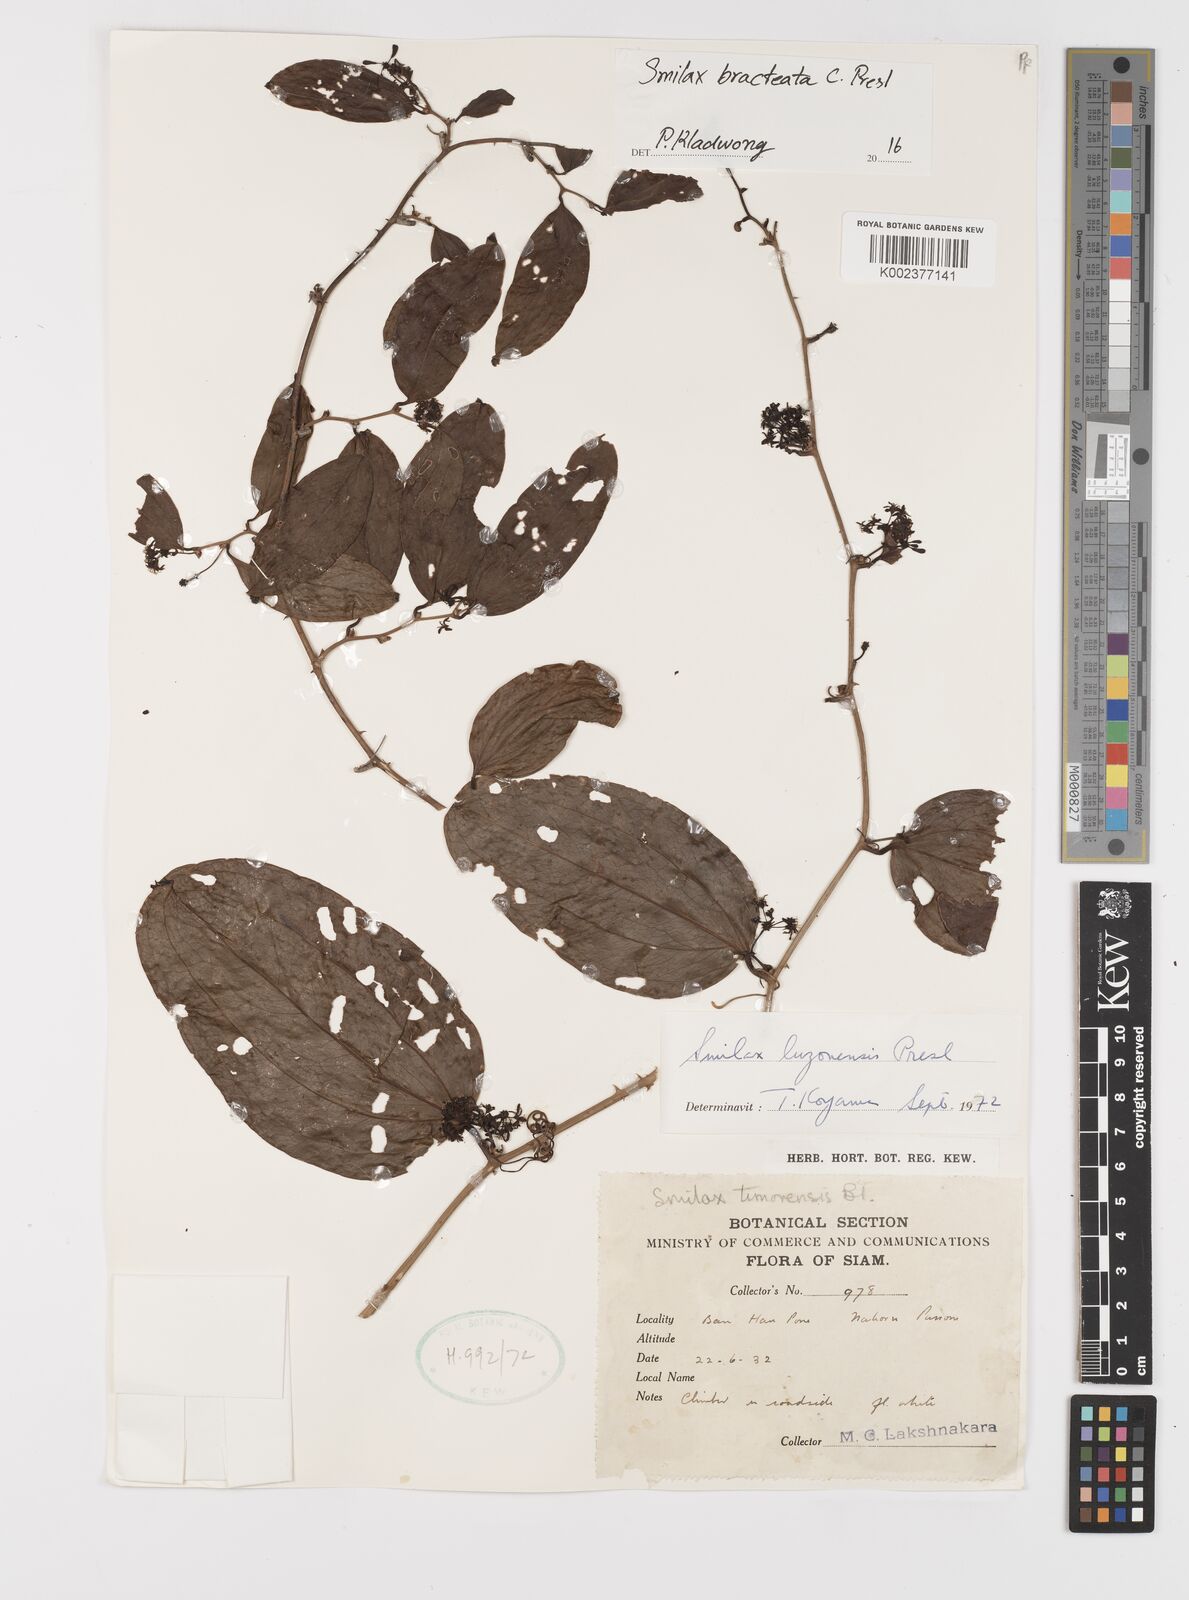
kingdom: Plantae
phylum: Tracheophyta
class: Liliopsida
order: Liliales
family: Smilacaceae
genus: Smilax
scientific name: Smilax bracteata
